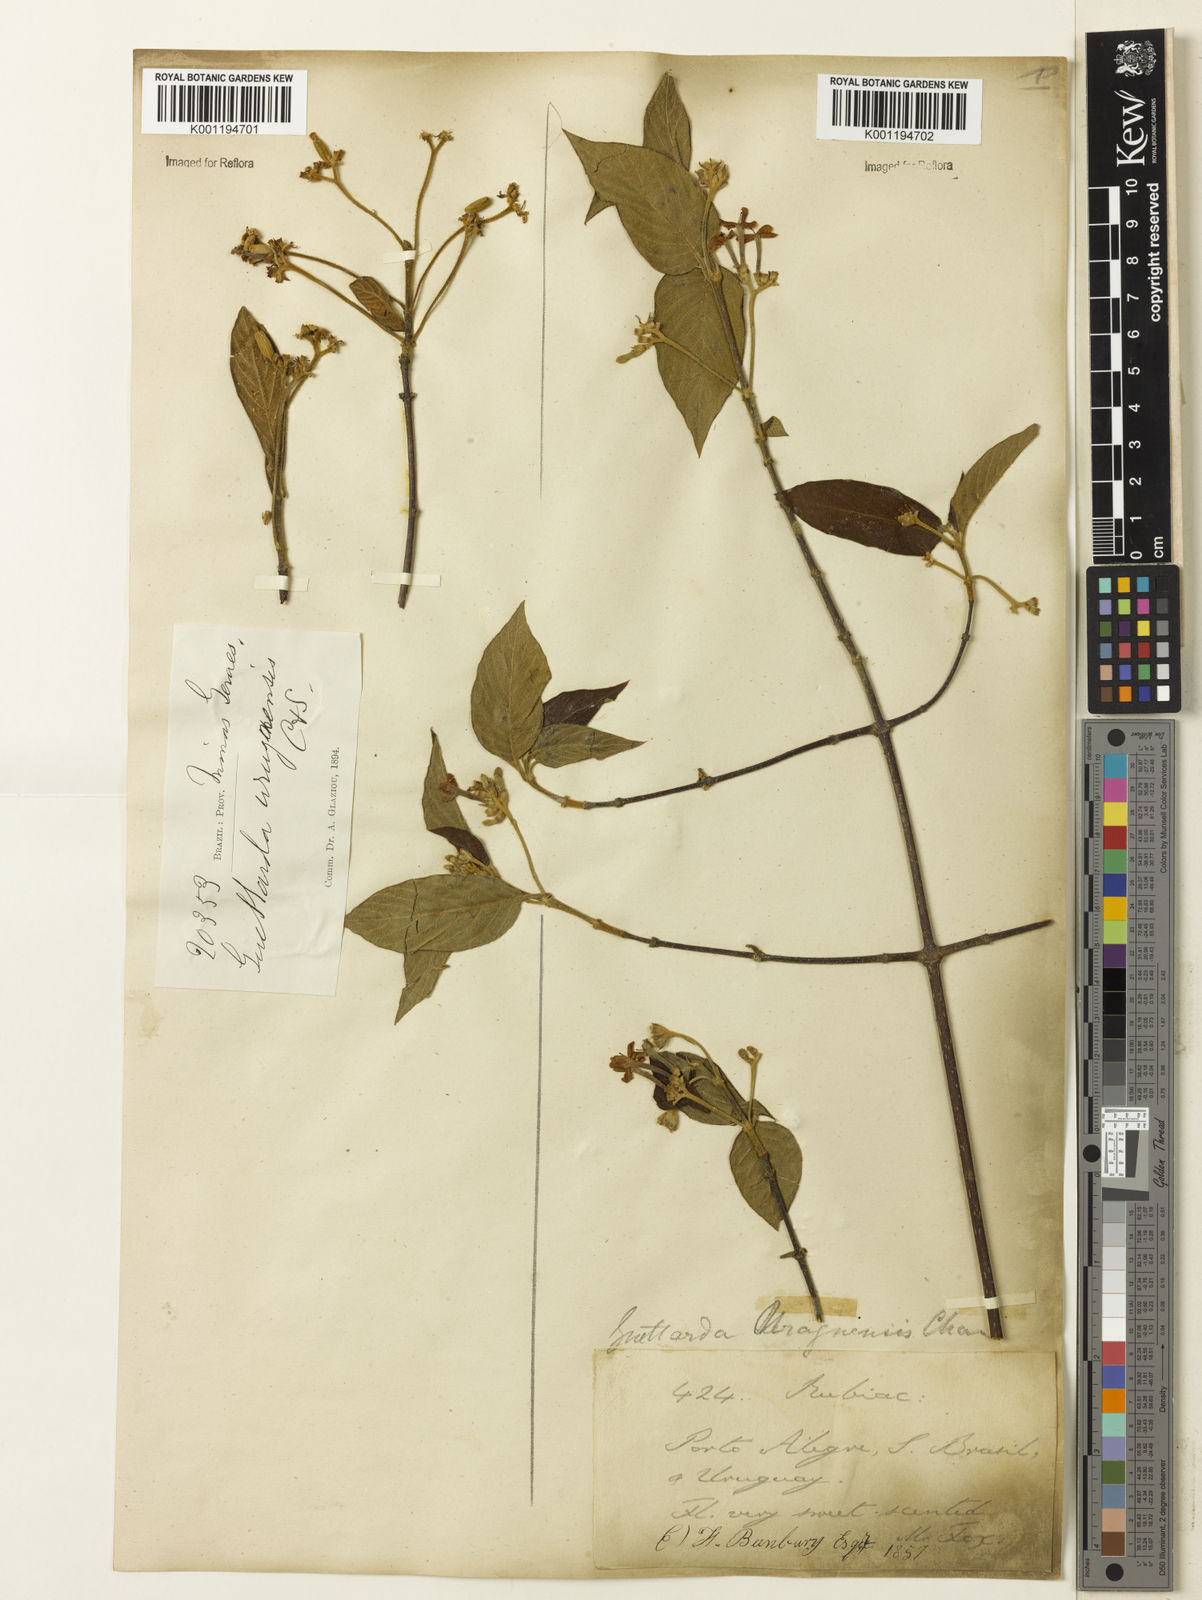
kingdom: Plantae
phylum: Tracheophyta
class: Magnoliopsida
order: Gentianales
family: Rubiaceae
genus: Guettarda
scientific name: Guettarda uruguensis
